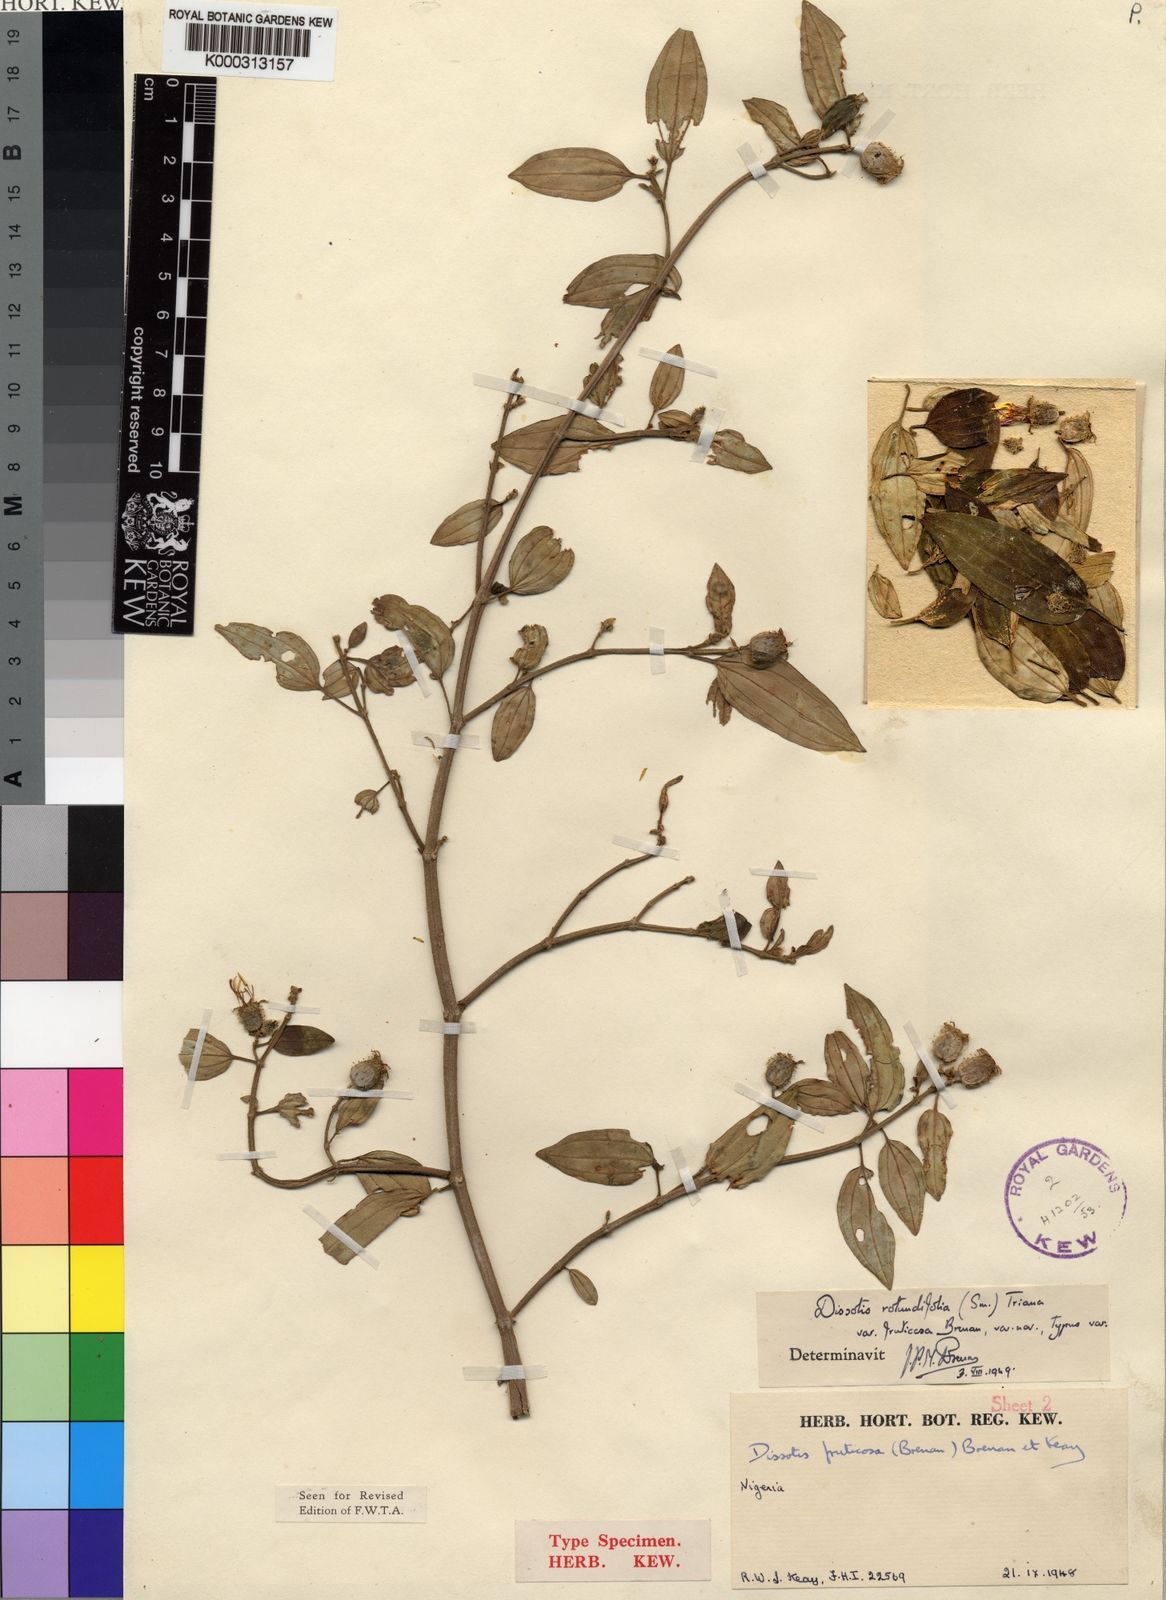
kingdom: Plantae
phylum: Tracheophyta
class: Magnoliopsida
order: Myrtales
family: Melastomataceae
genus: Heterotis
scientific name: Heterotis rotundifolia
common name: Pinklady
